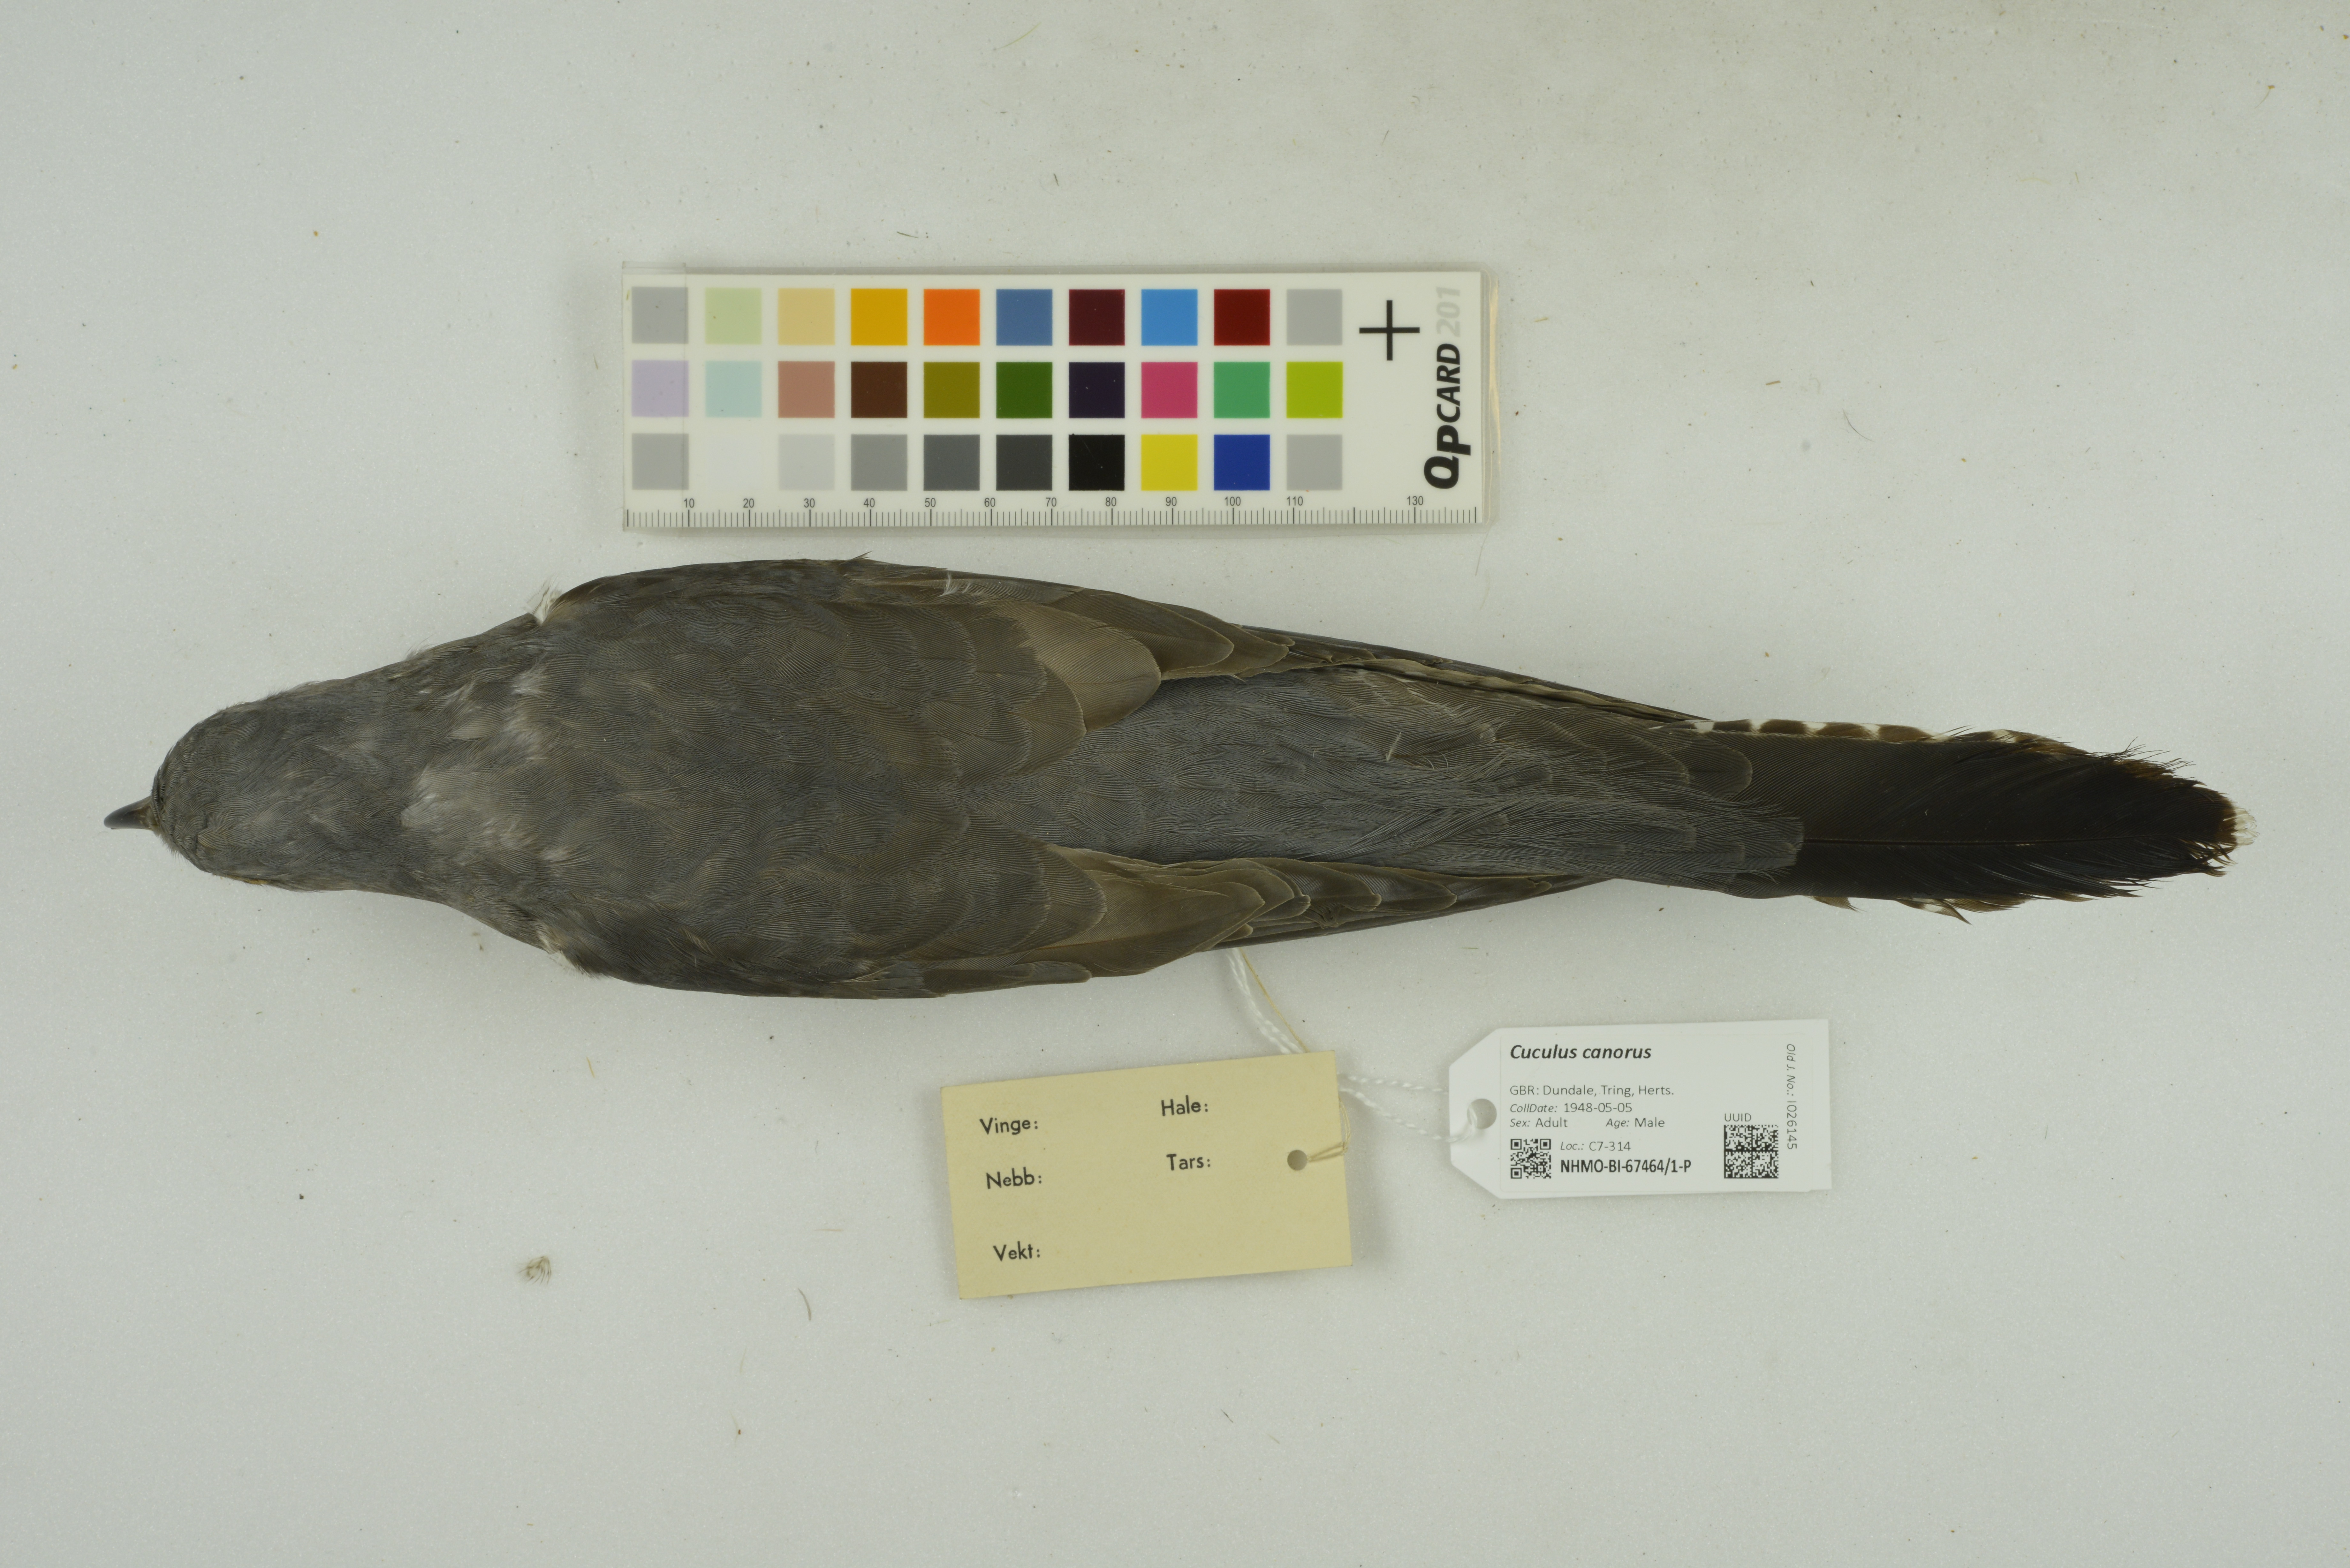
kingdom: Animalia
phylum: Chordata
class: Aves
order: Cuculiformes
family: Cuculidae
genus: Cuculus
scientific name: Cuculus canorus
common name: Common cuckoo
